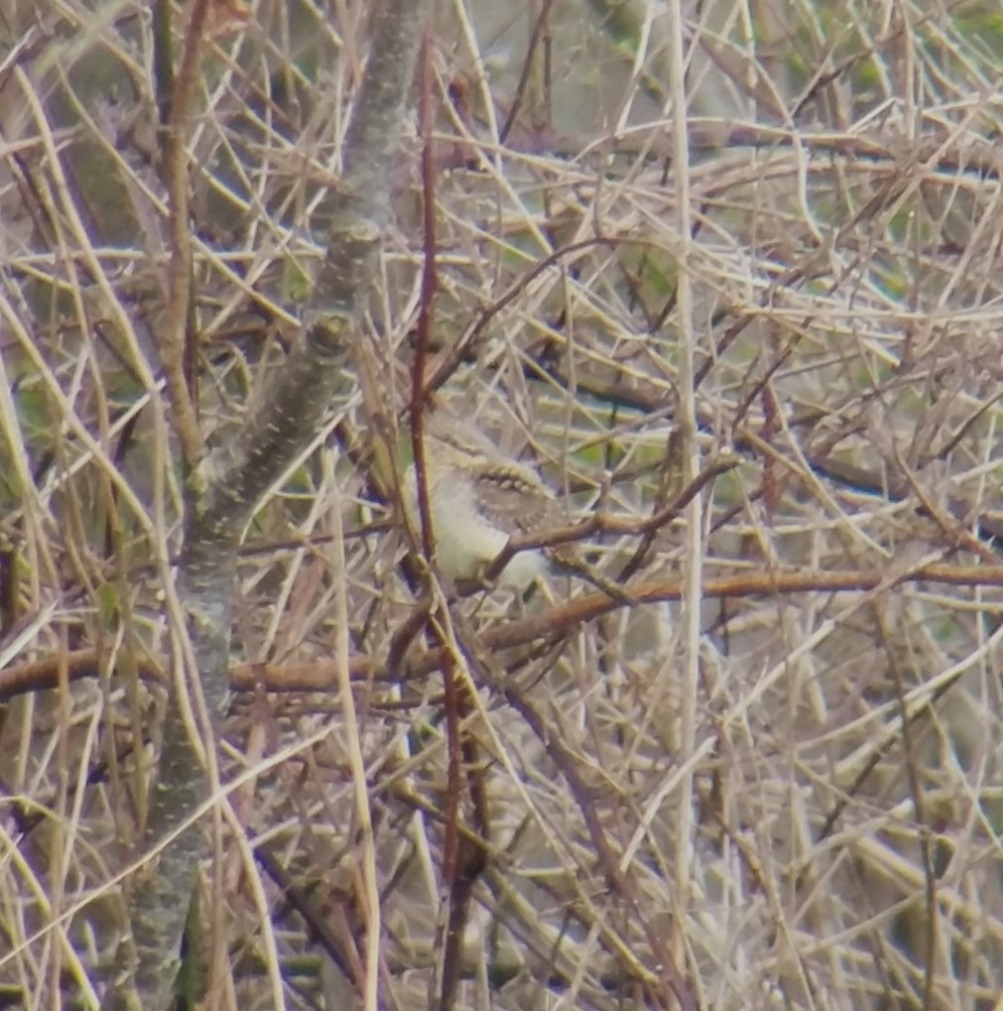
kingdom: Animalia
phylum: Chordata
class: Aves
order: Piciformes
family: Picidae
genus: Jynx
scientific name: Jynx torquilla
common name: Vendehals
